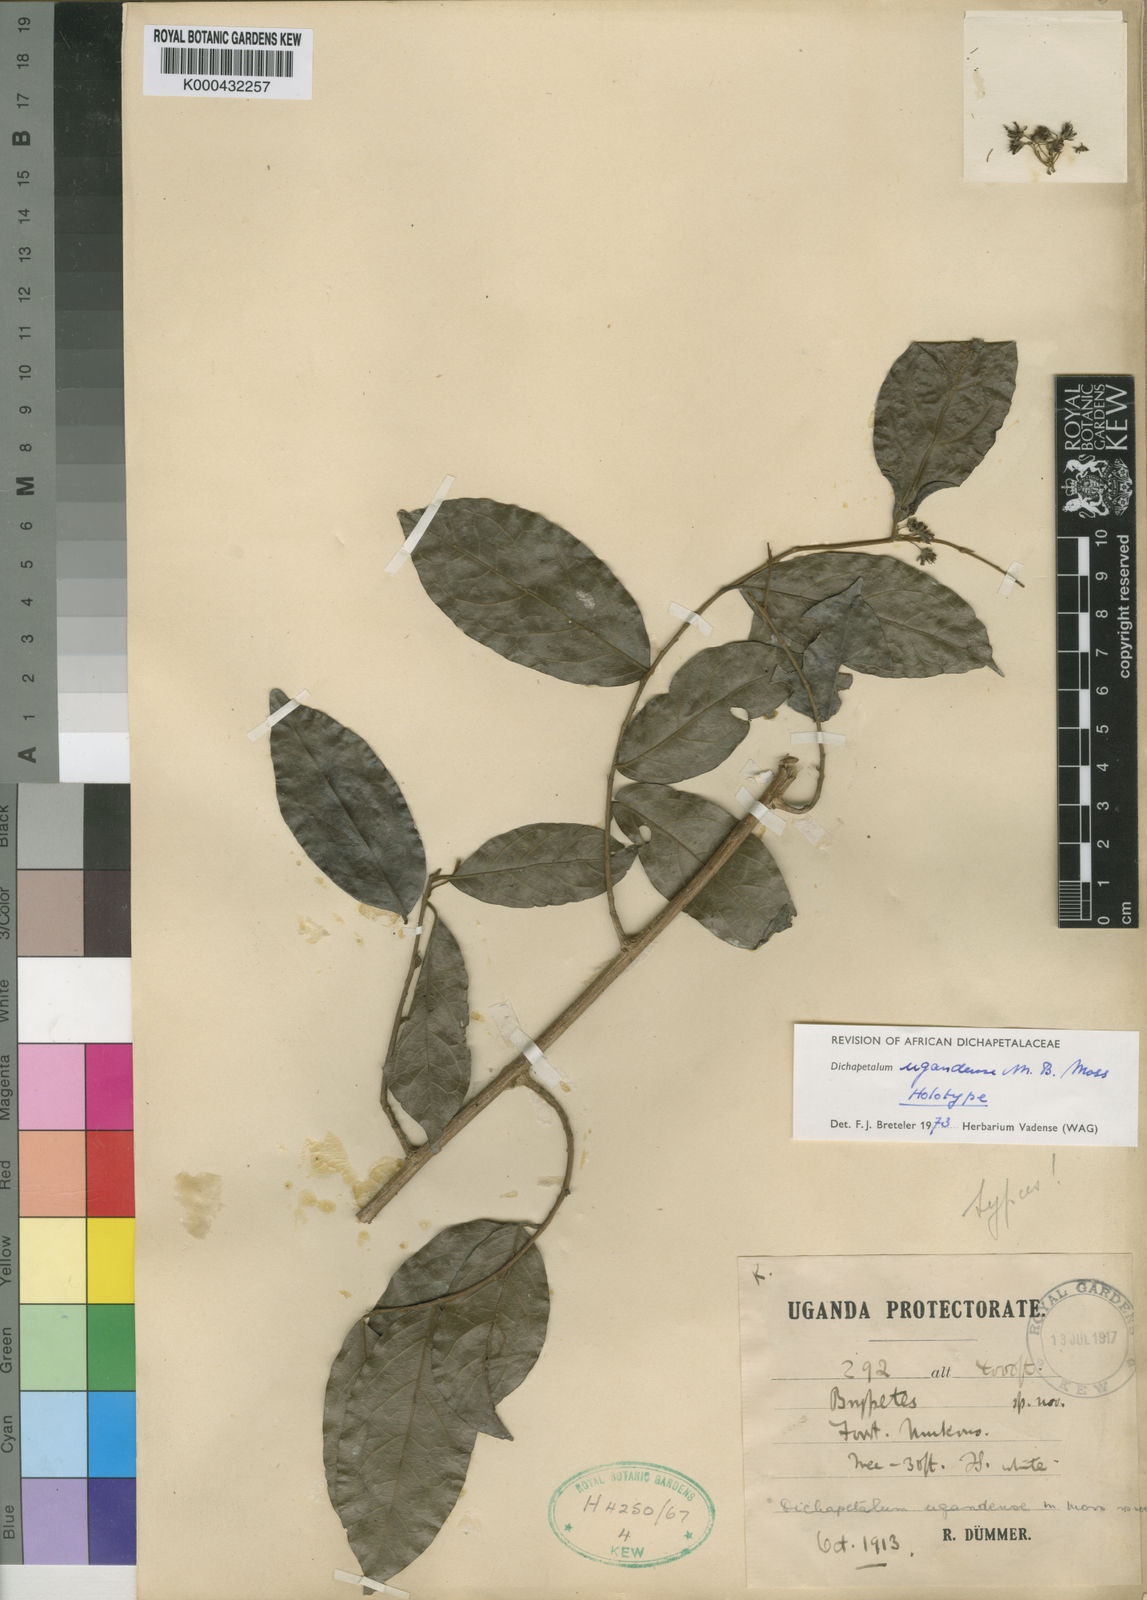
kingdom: Plantae
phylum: Tracheophyta
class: Magnoliopsida
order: Malpighiales
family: Dichapetalaceae
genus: Dichapetalum
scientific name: Dichapetalum ugandense
